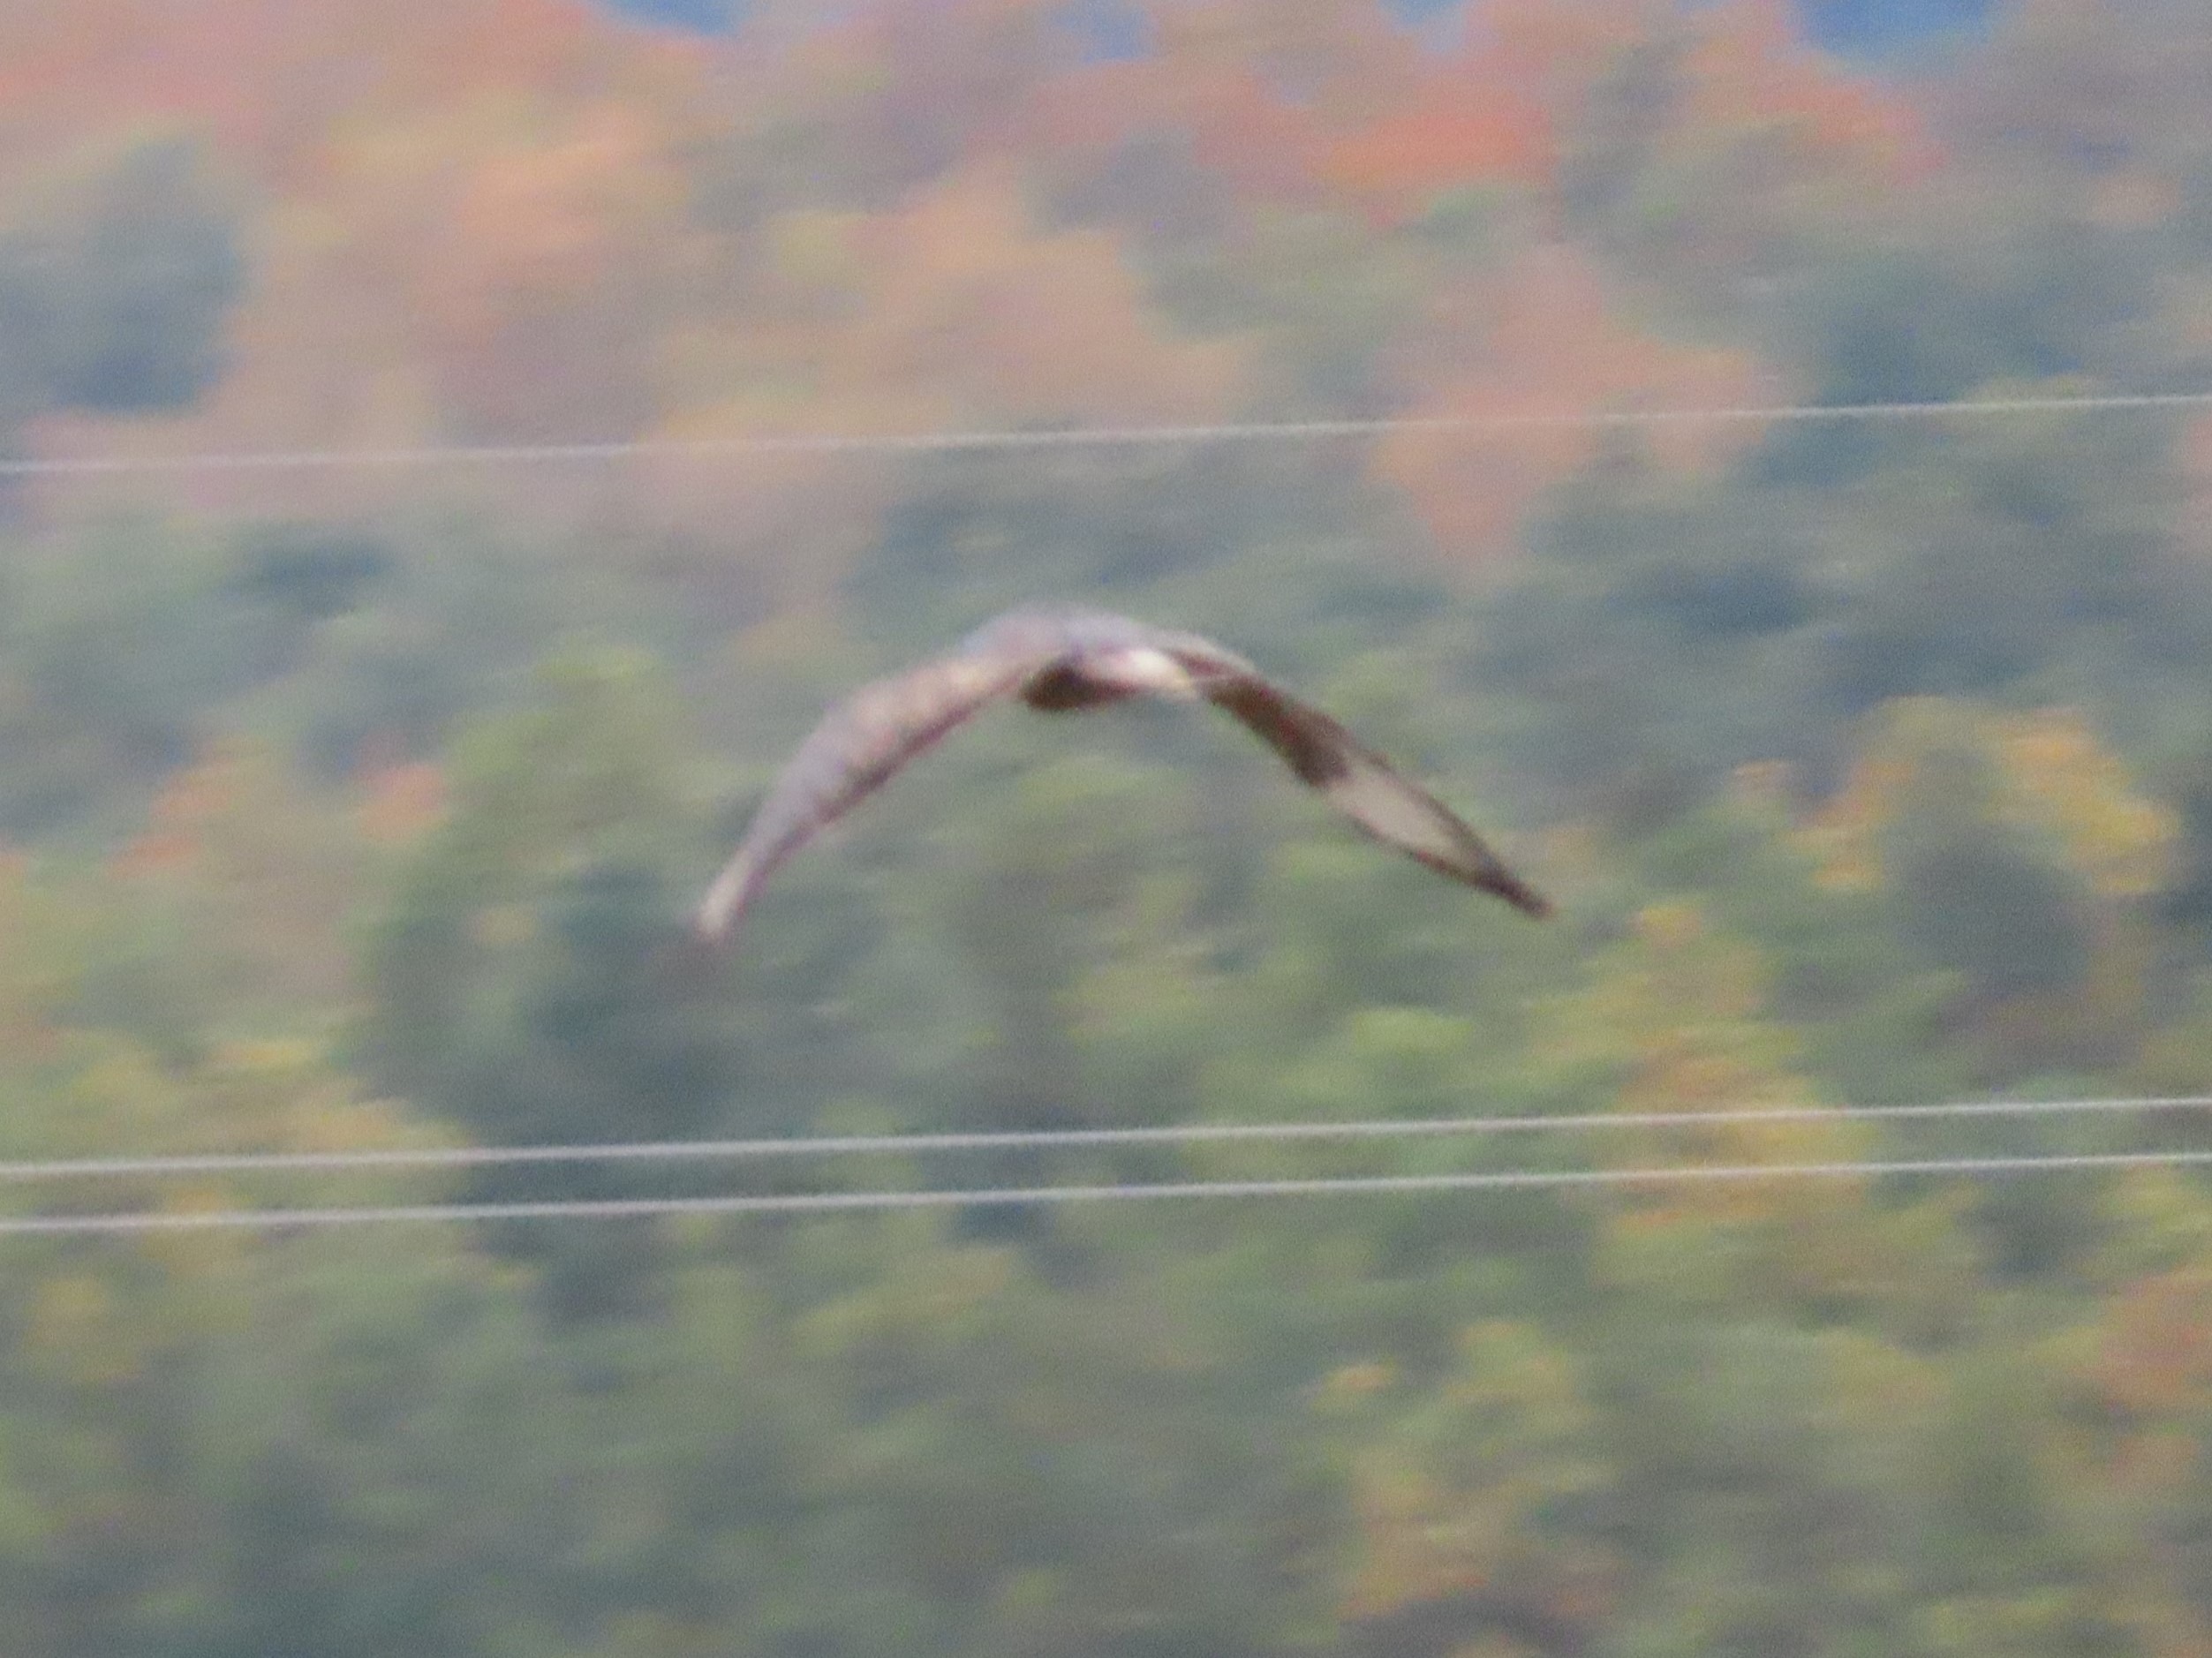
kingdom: Animalia
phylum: Chordata
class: Aves
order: Accipitriformes
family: Accipitridae
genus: Buteo
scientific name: Buteo buteo
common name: Musvåge
